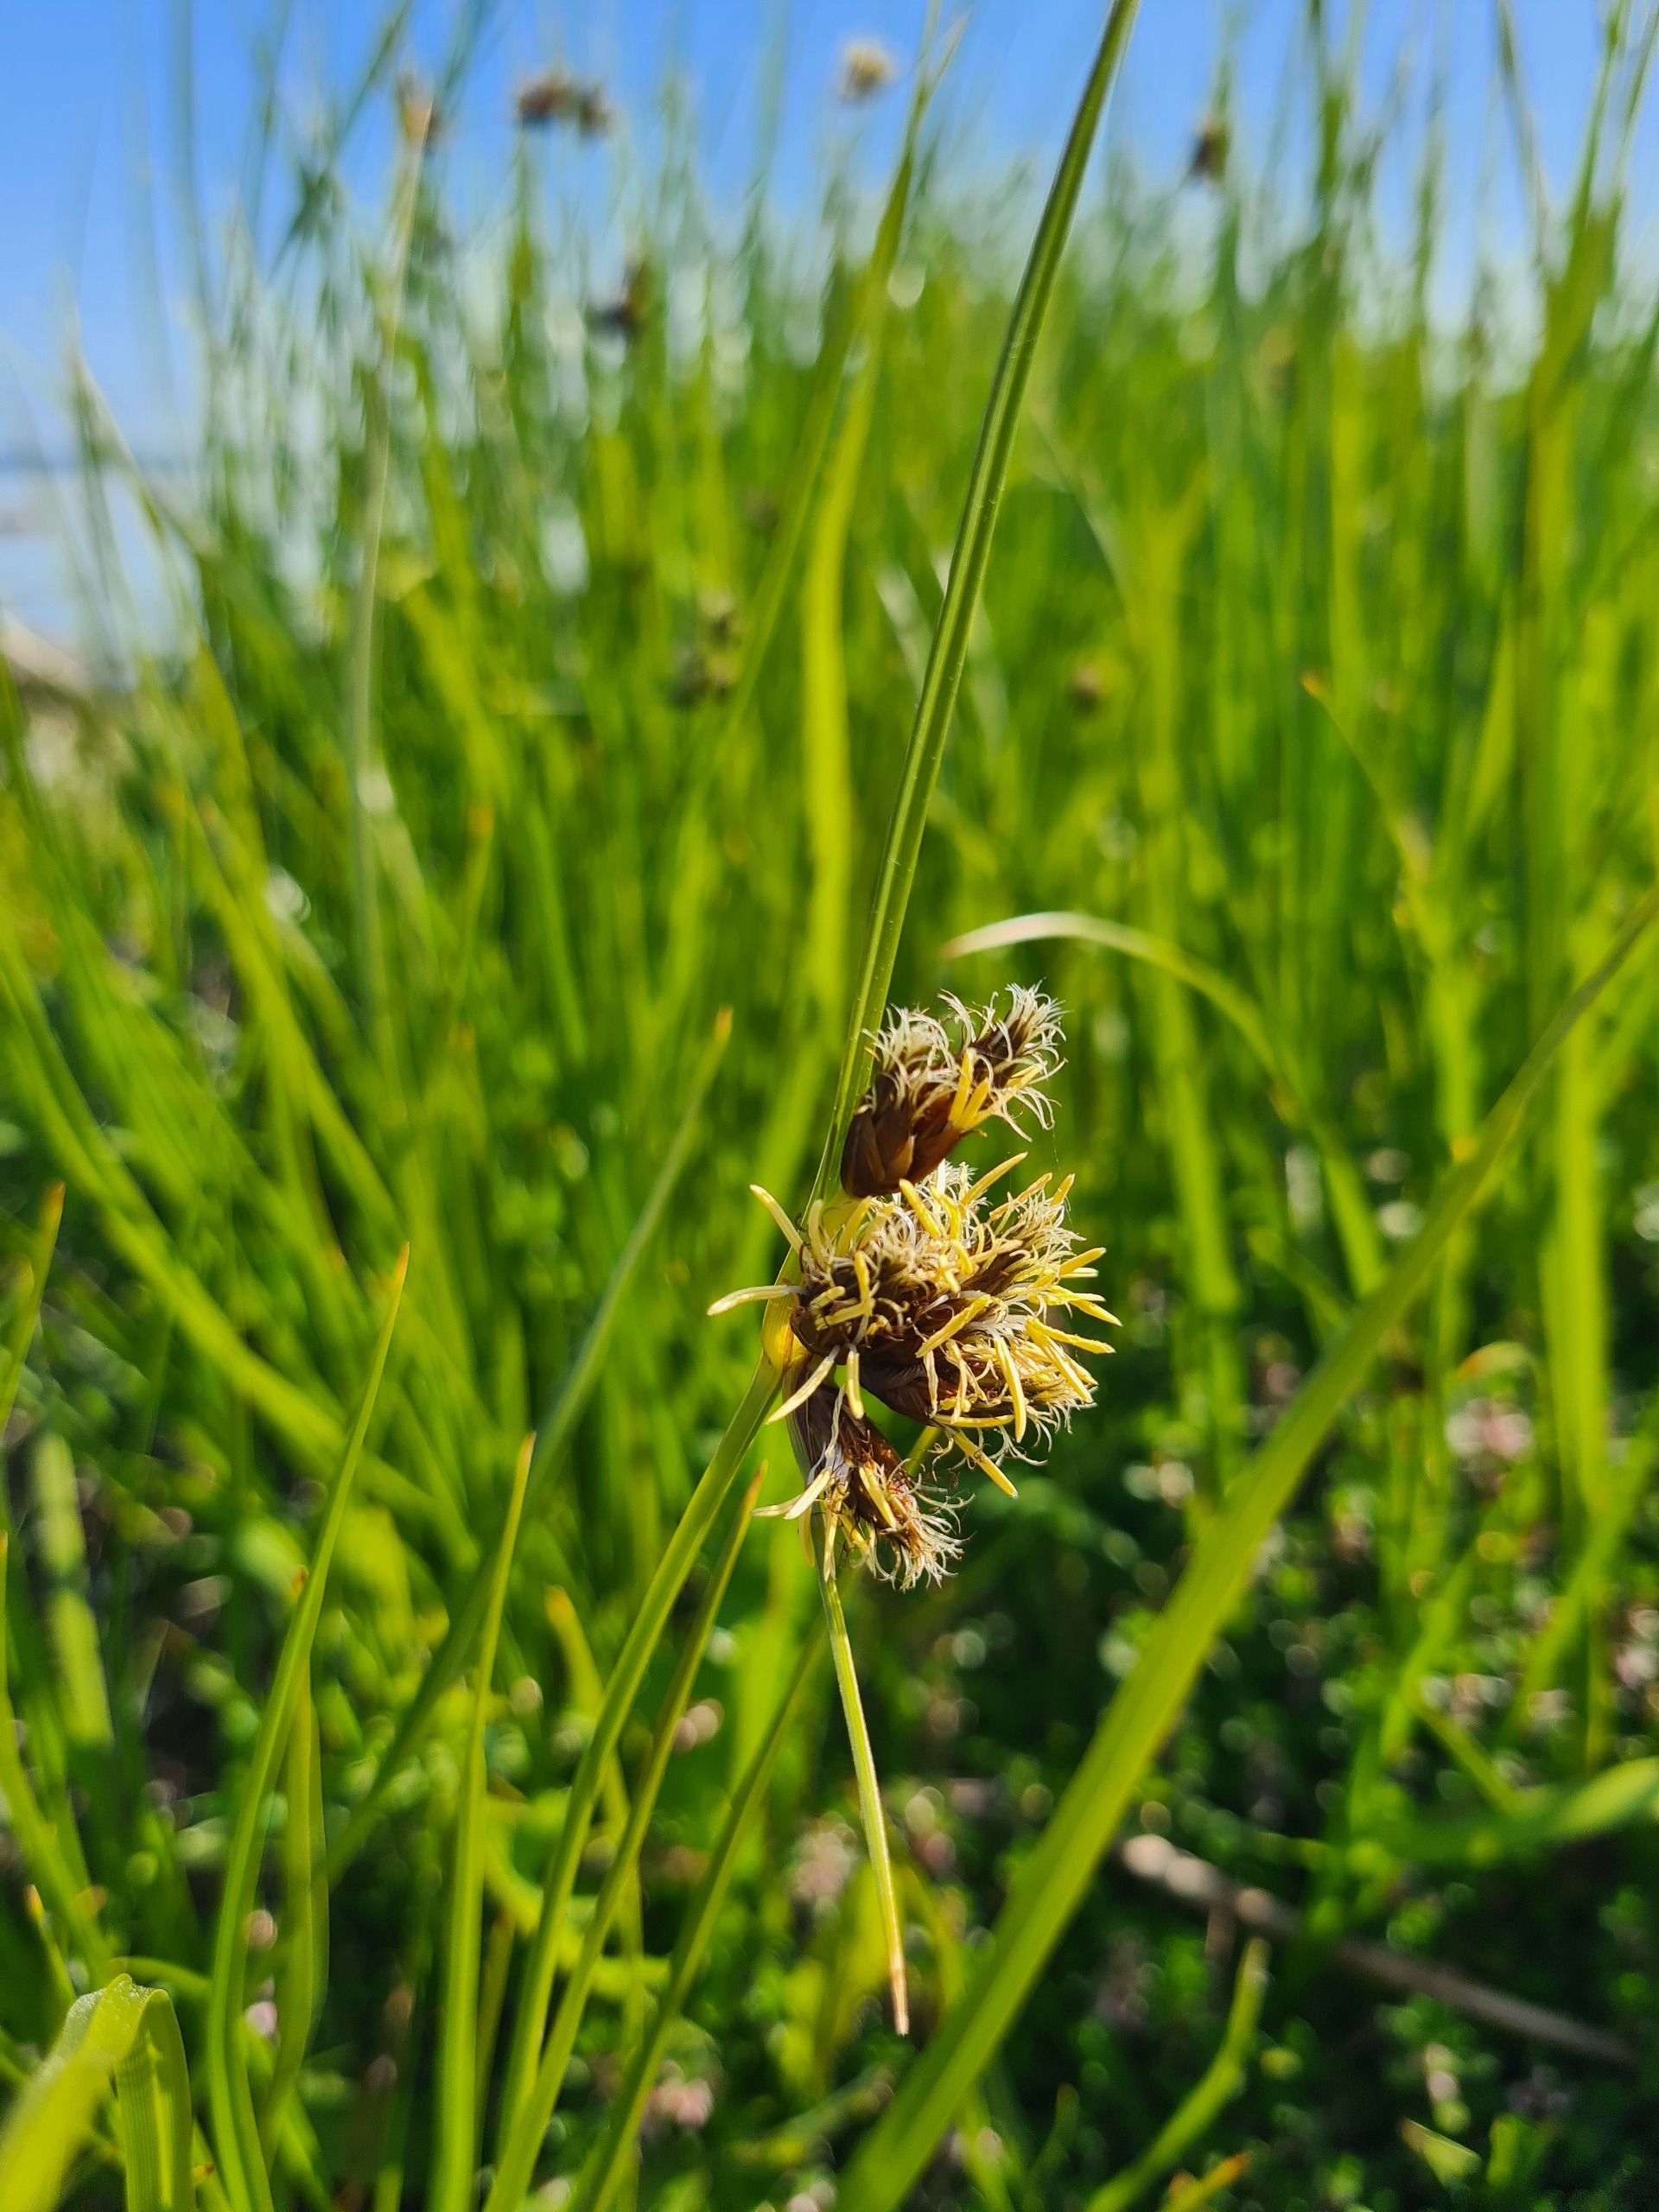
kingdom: Plantae
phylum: Tracheophyta
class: Liliopsida
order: Poales
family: Cyperaceae
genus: Bolboschoenus
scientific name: Bolboschoenus maritimus
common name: Strand-kogleaks
